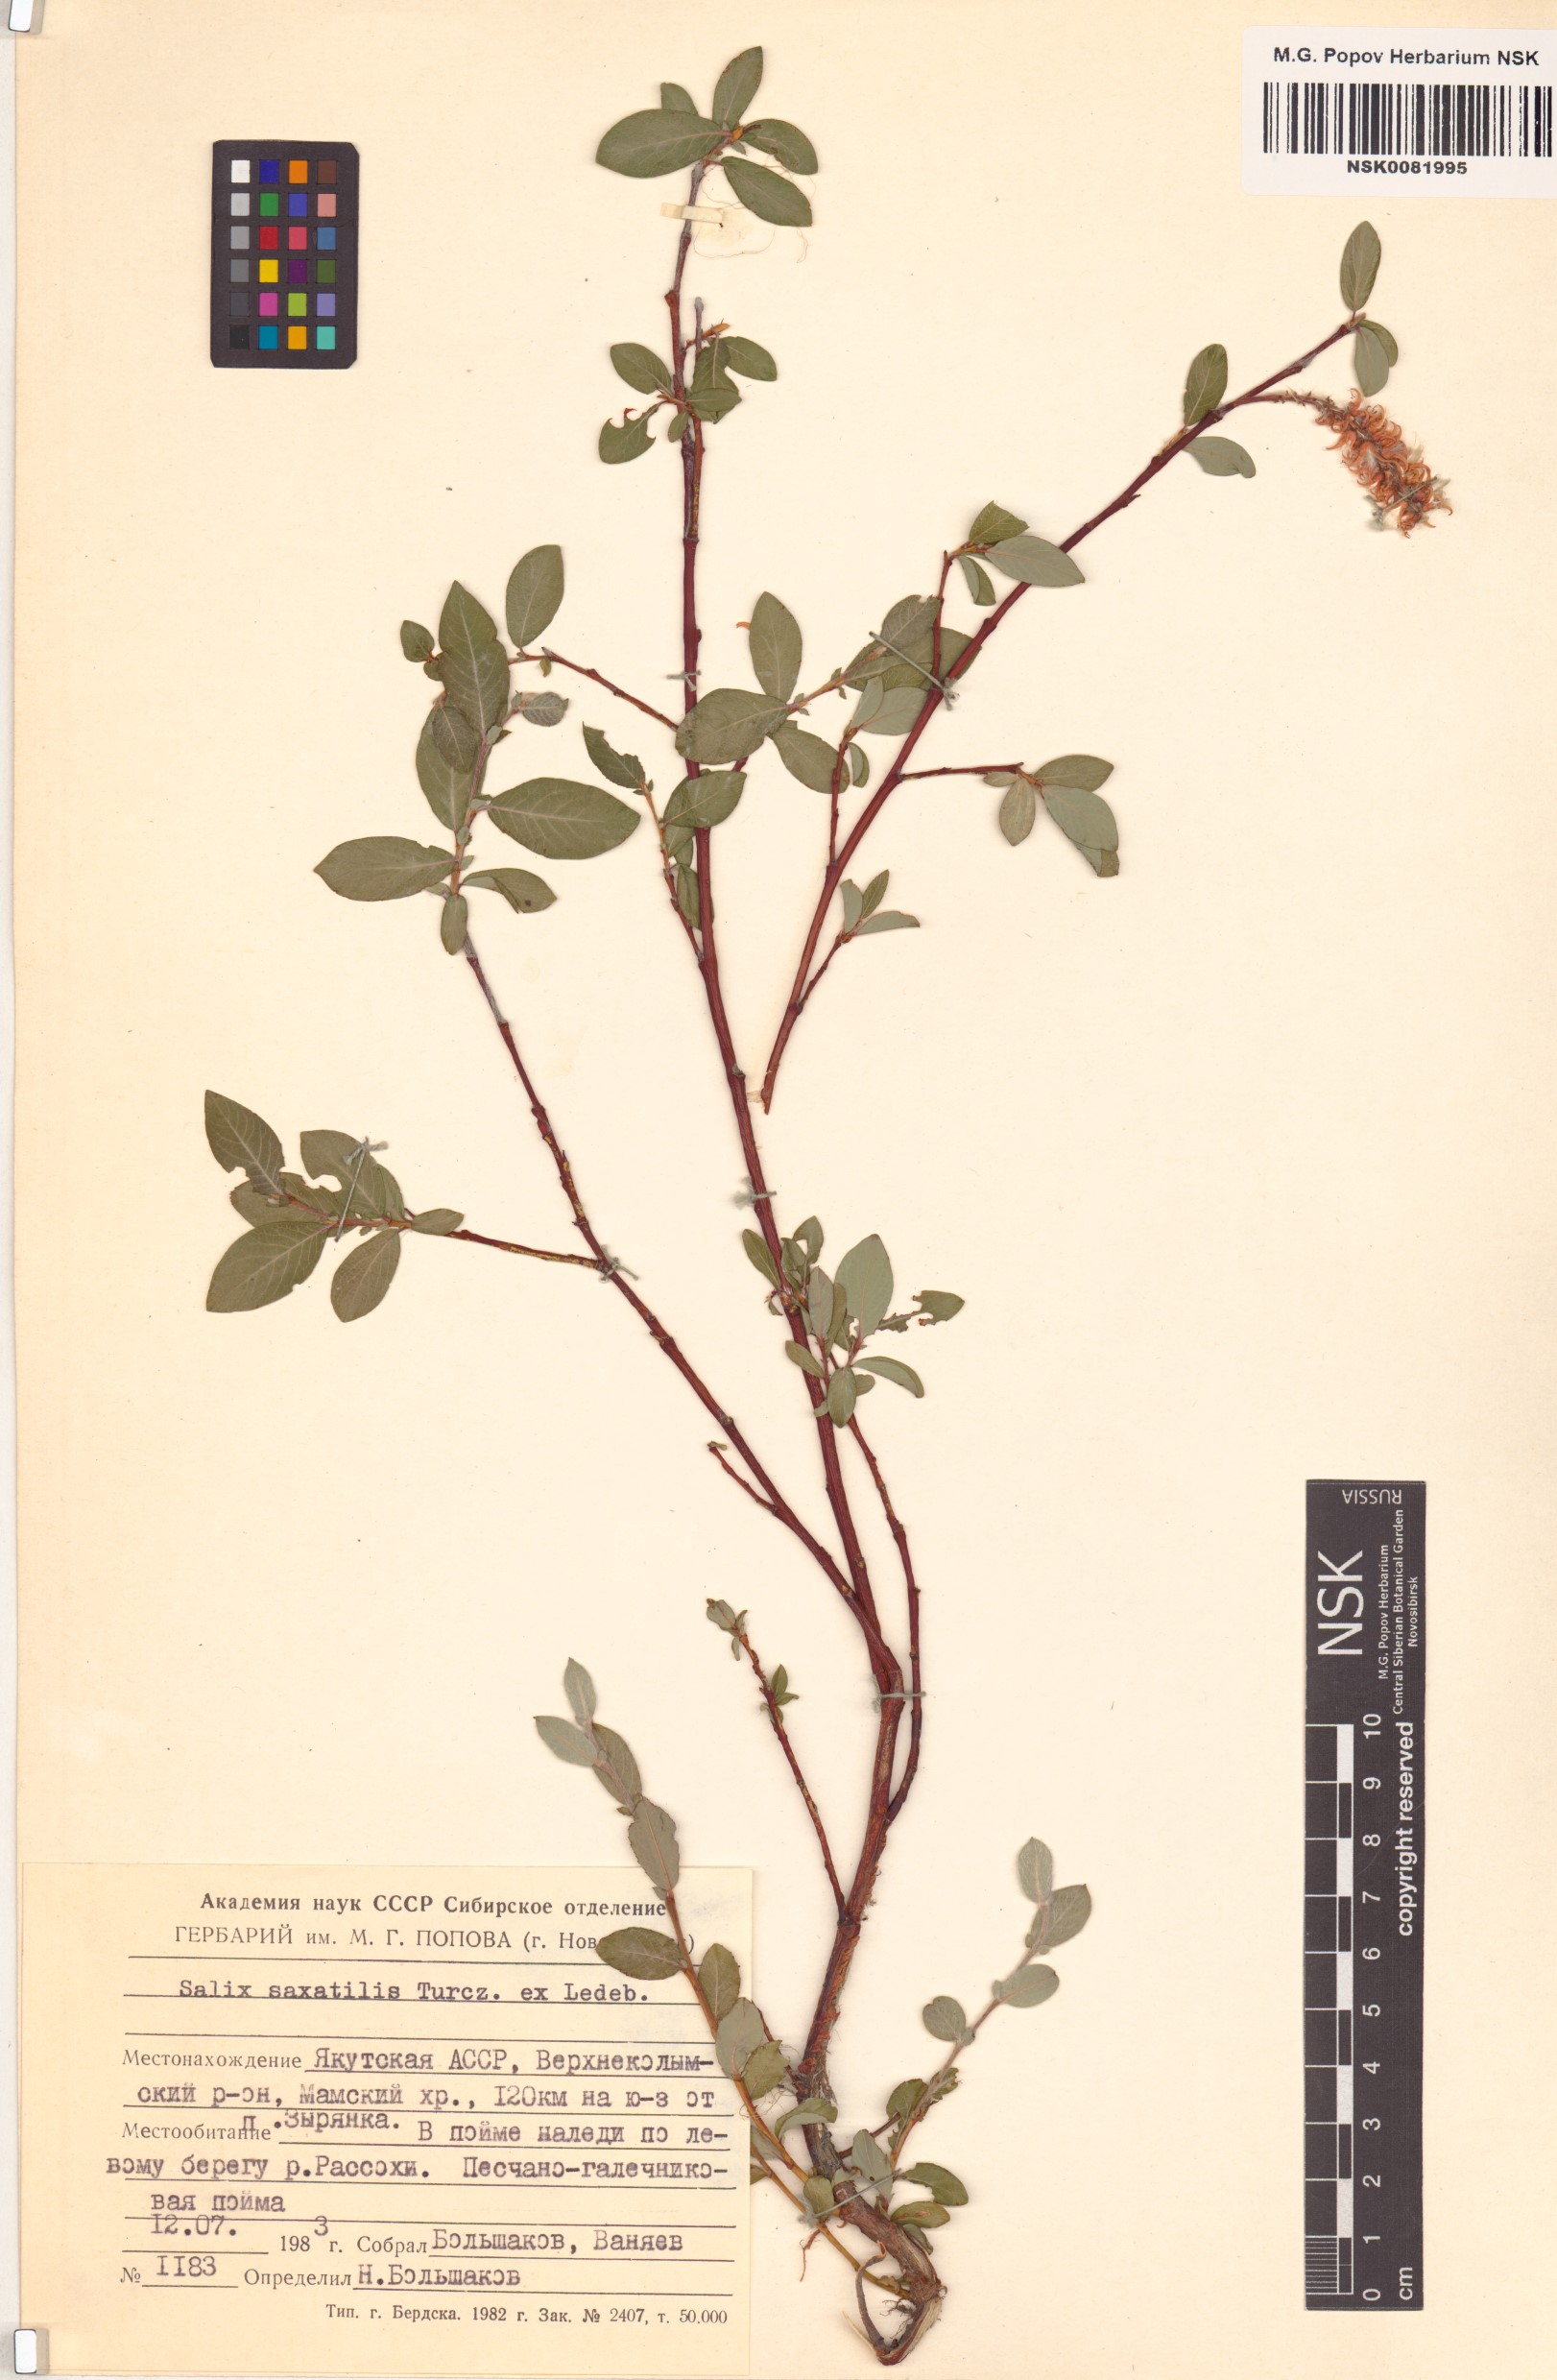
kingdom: Plantae
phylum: Tracheophyta
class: Magnoliopsida
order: Malpighiales
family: Salicaceae
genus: Salix
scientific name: Salix saxatilis
